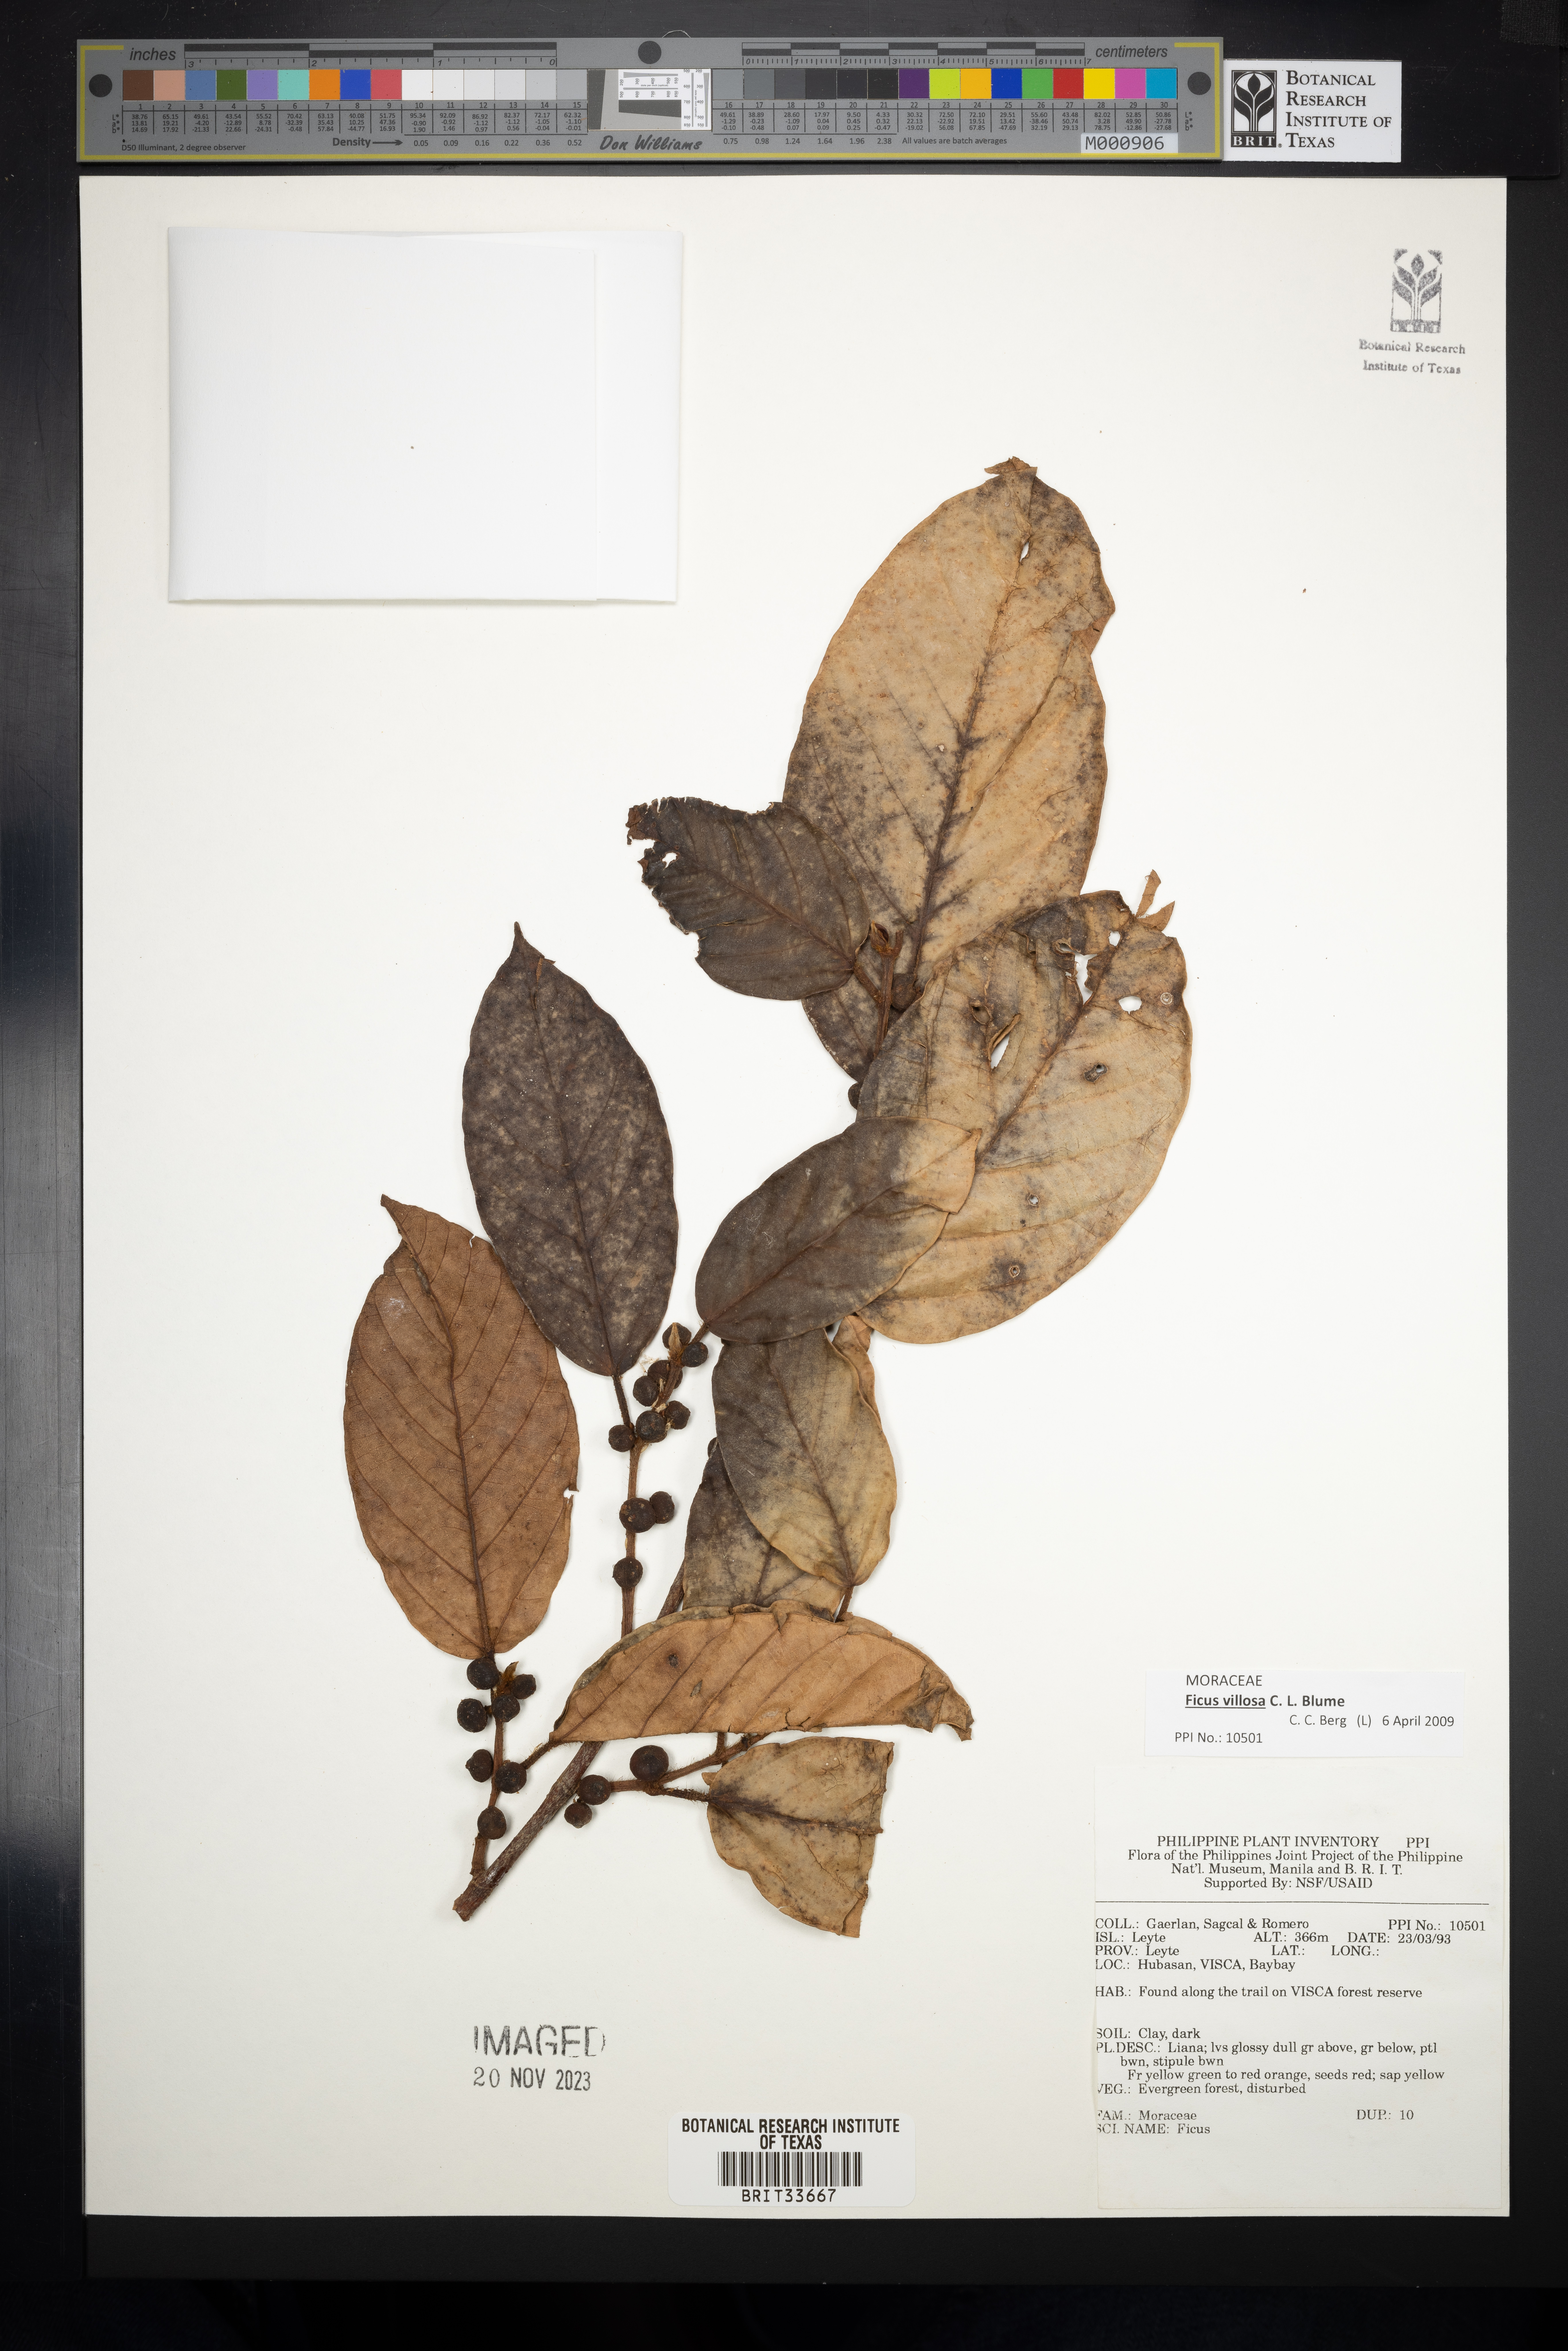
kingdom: Plantae
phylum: Tracheophyta
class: Magnoliopsida
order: Rosales
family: Moraceae
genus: Ficus
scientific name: Ficus
